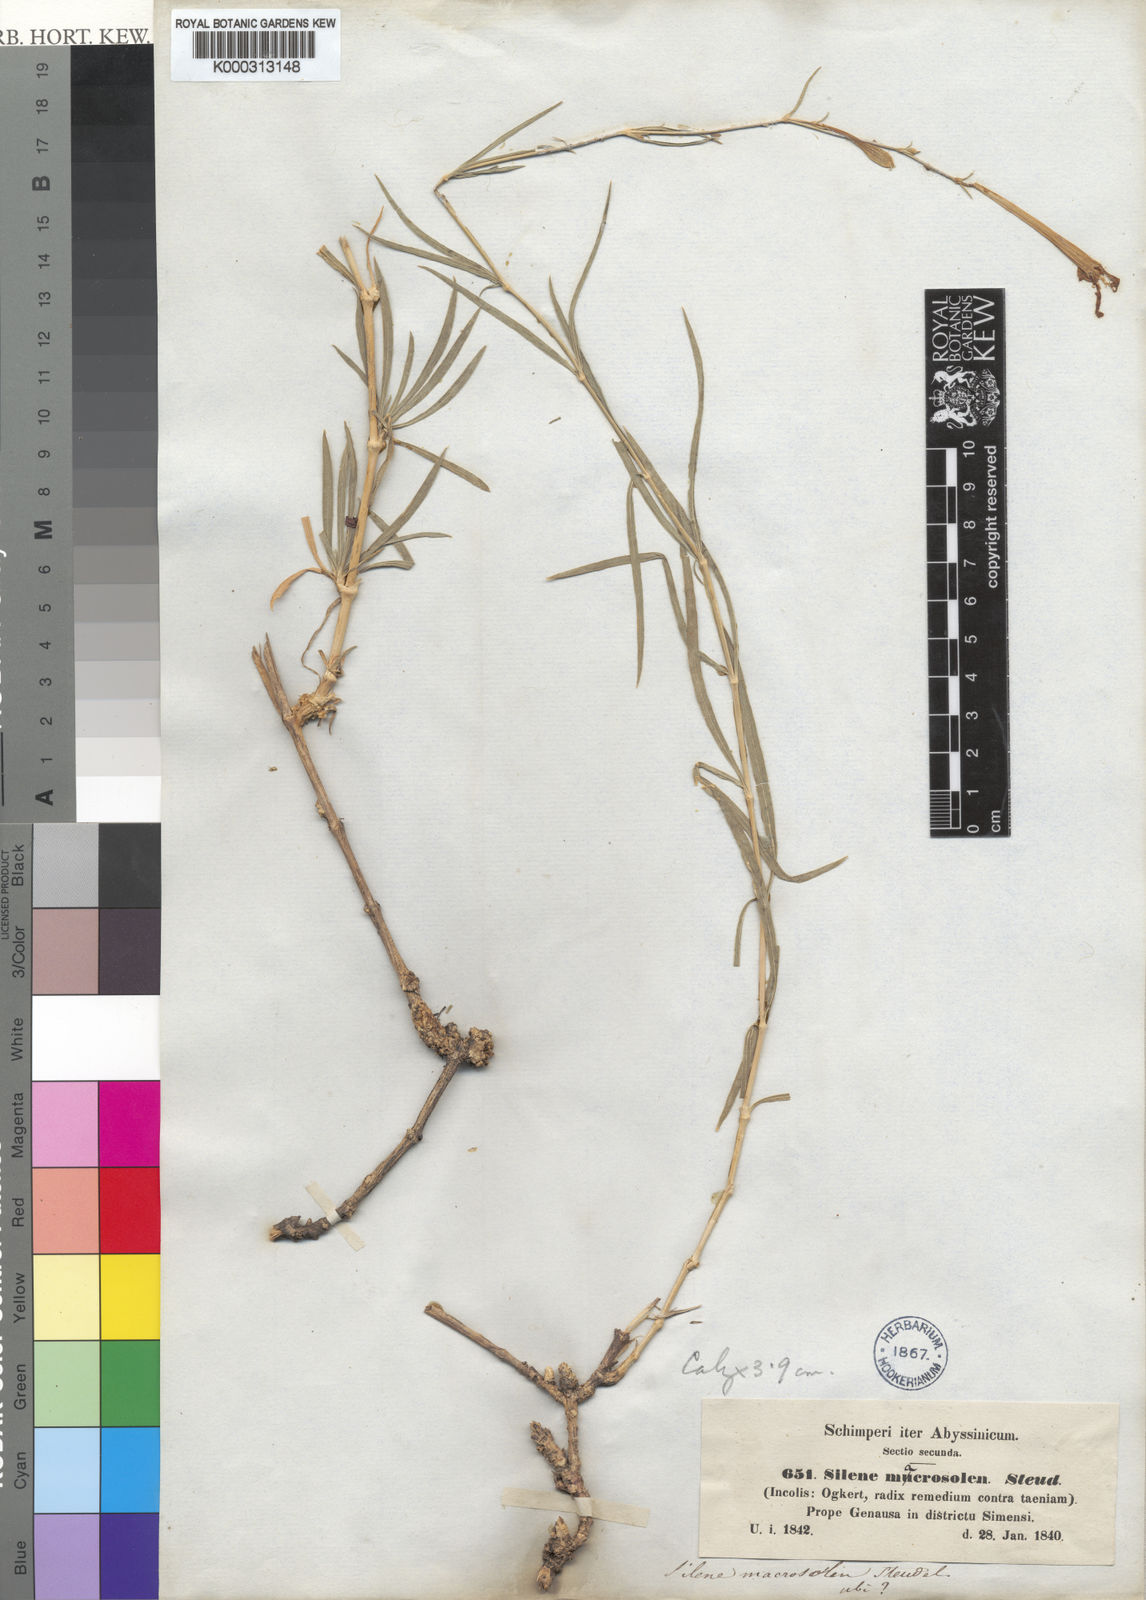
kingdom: Plantae
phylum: Tracheophyta
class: Magnoliopsida
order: Caryophyllales
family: Caryophyllaceae
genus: Silene
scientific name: Silene macrosolen
